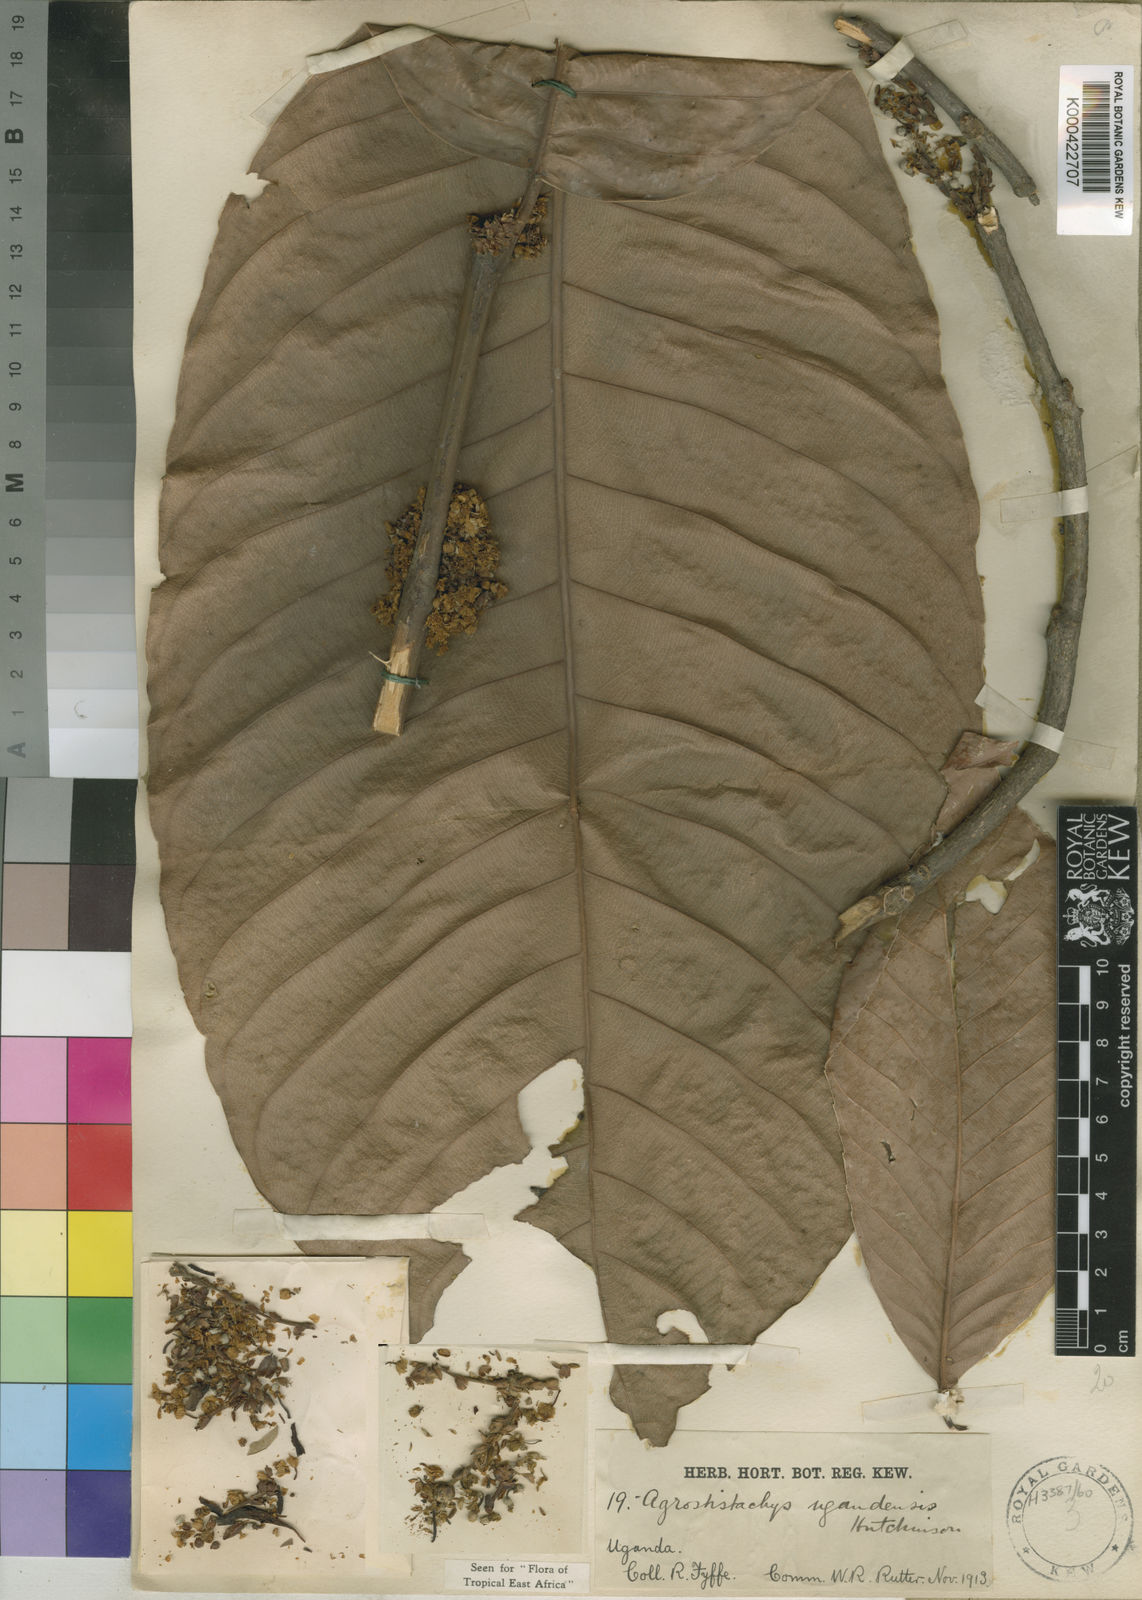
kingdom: Plantae
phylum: Tracheophyta
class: Magnoliopsida
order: Malpighiales
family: Euphorbiaceae
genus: Pseudagrostistachys
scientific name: Pseudagrostistachys ugandensis
